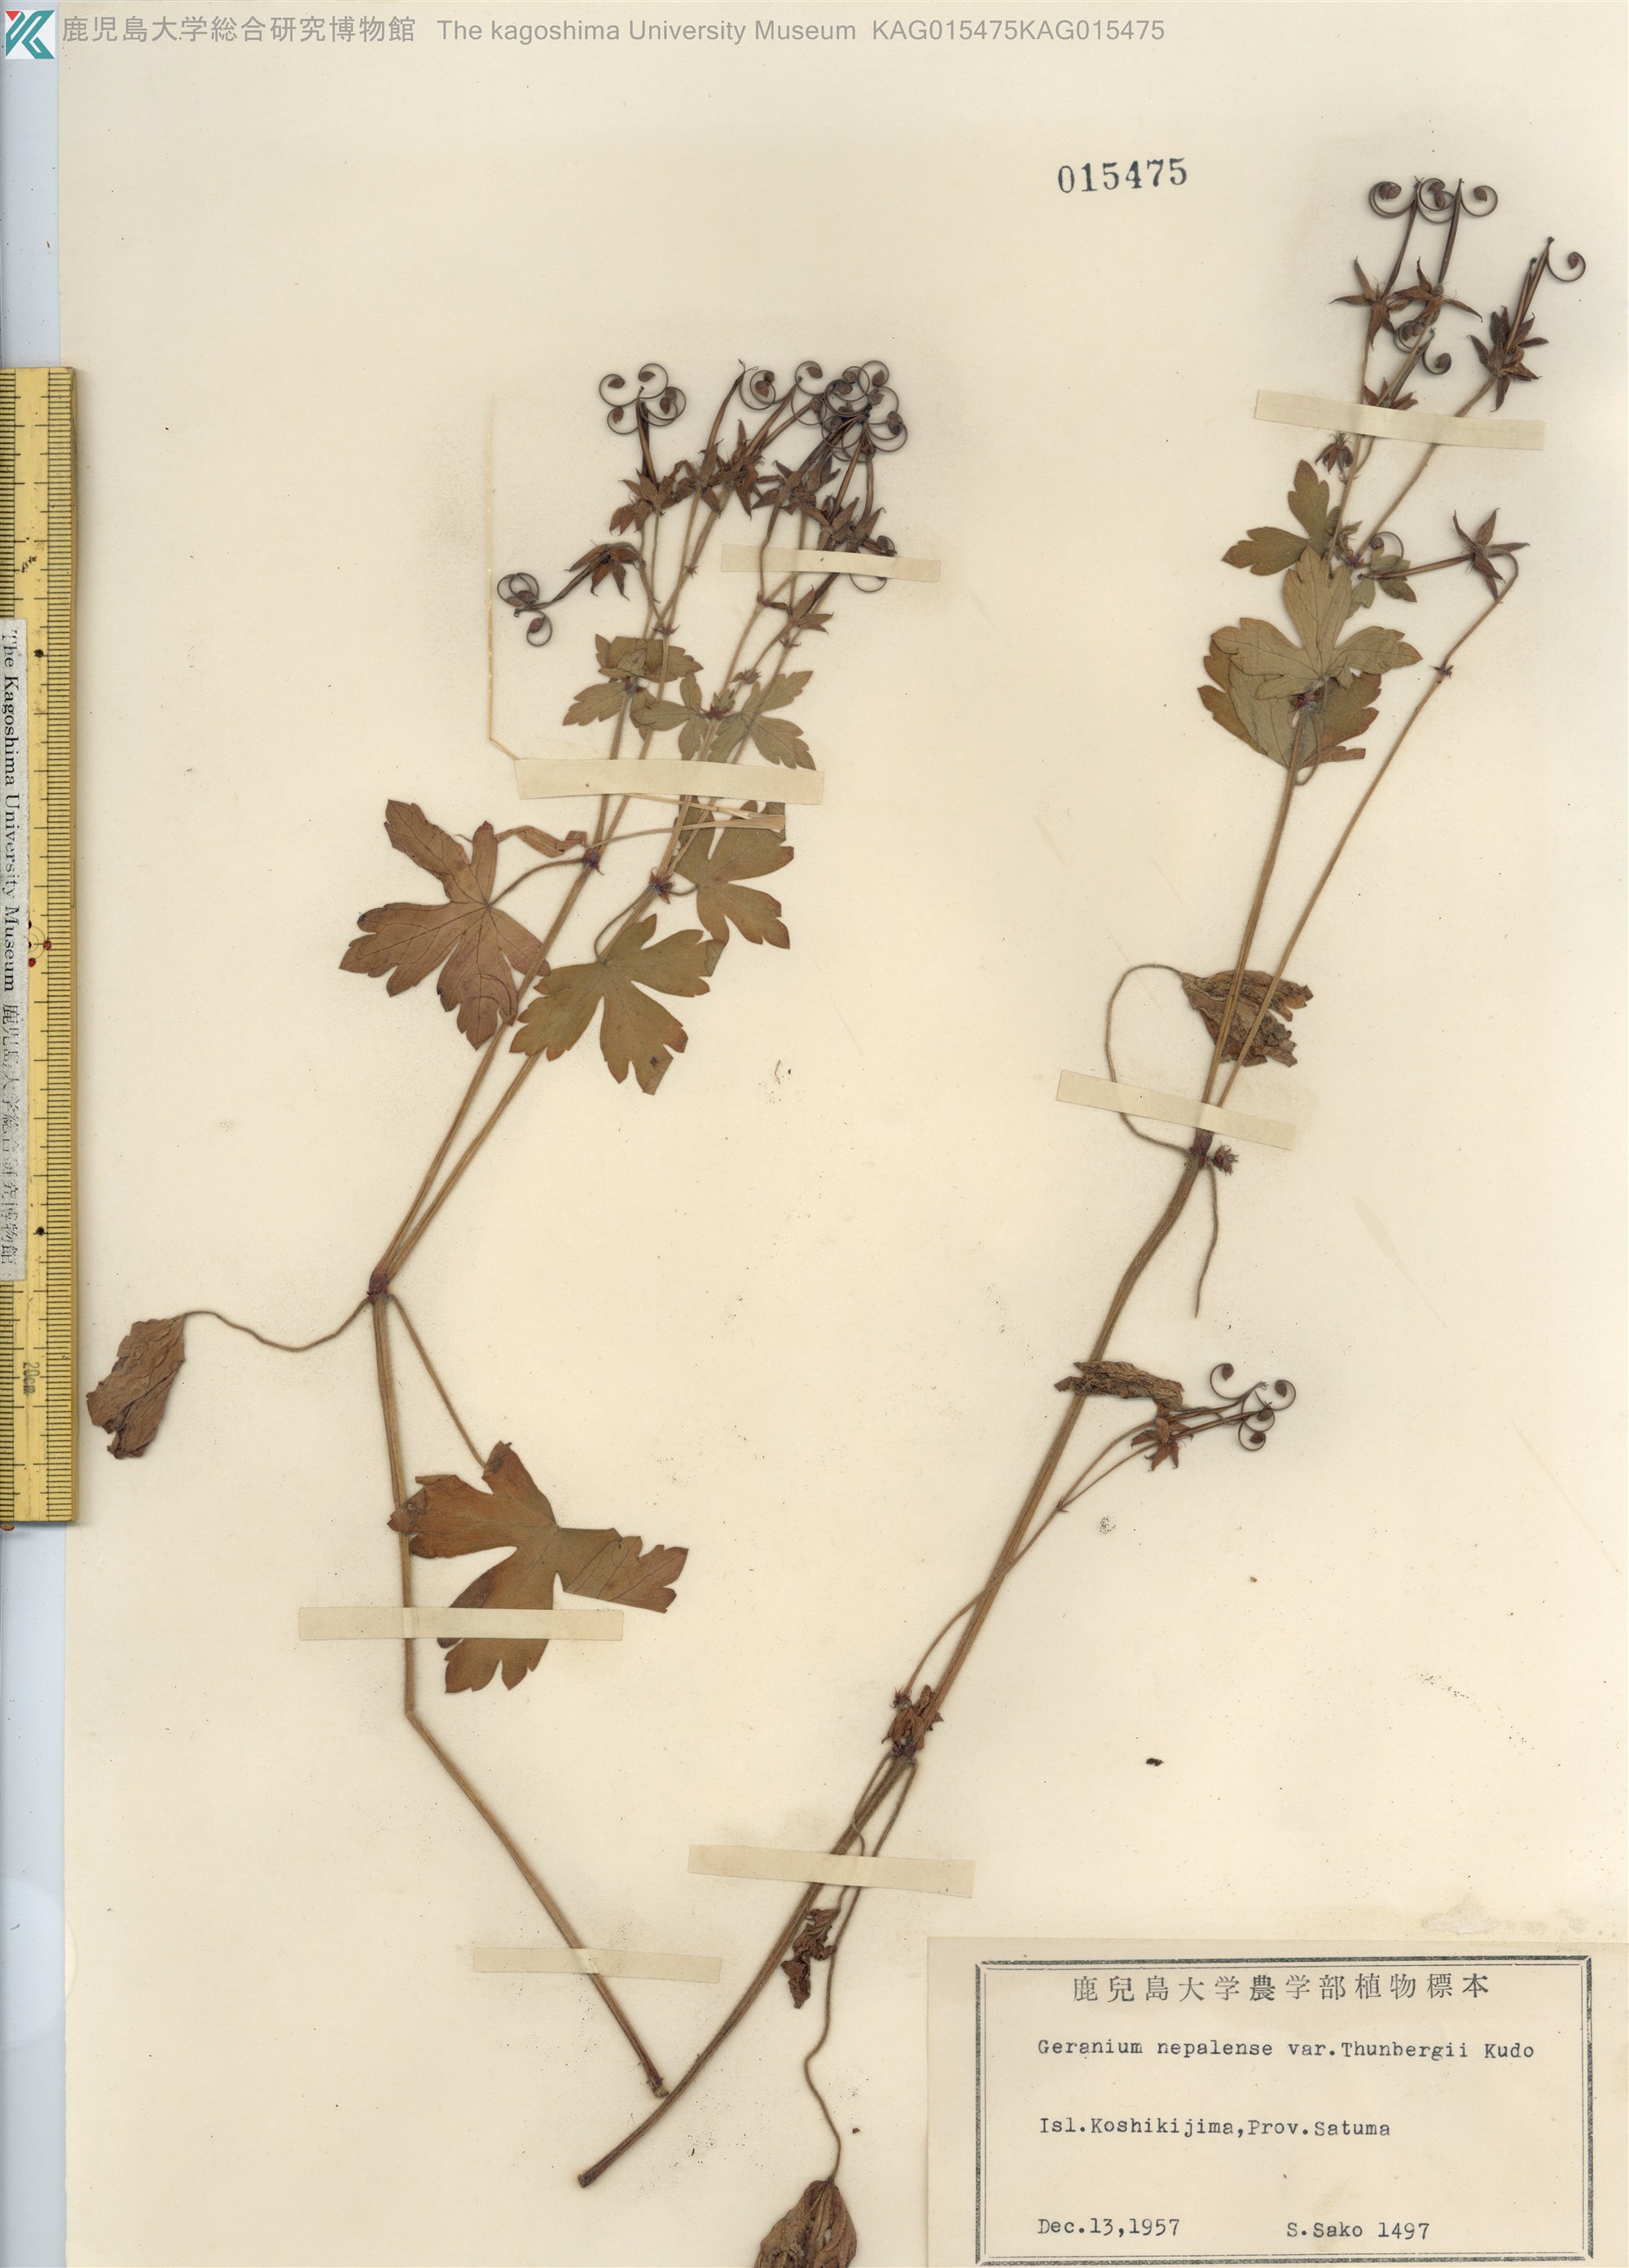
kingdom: Plantae
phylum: Tracheophyta
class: Magnoliopsida
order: Geraniales
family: Geraniaceae
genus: Geranium
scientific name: Geranium thunbergii
